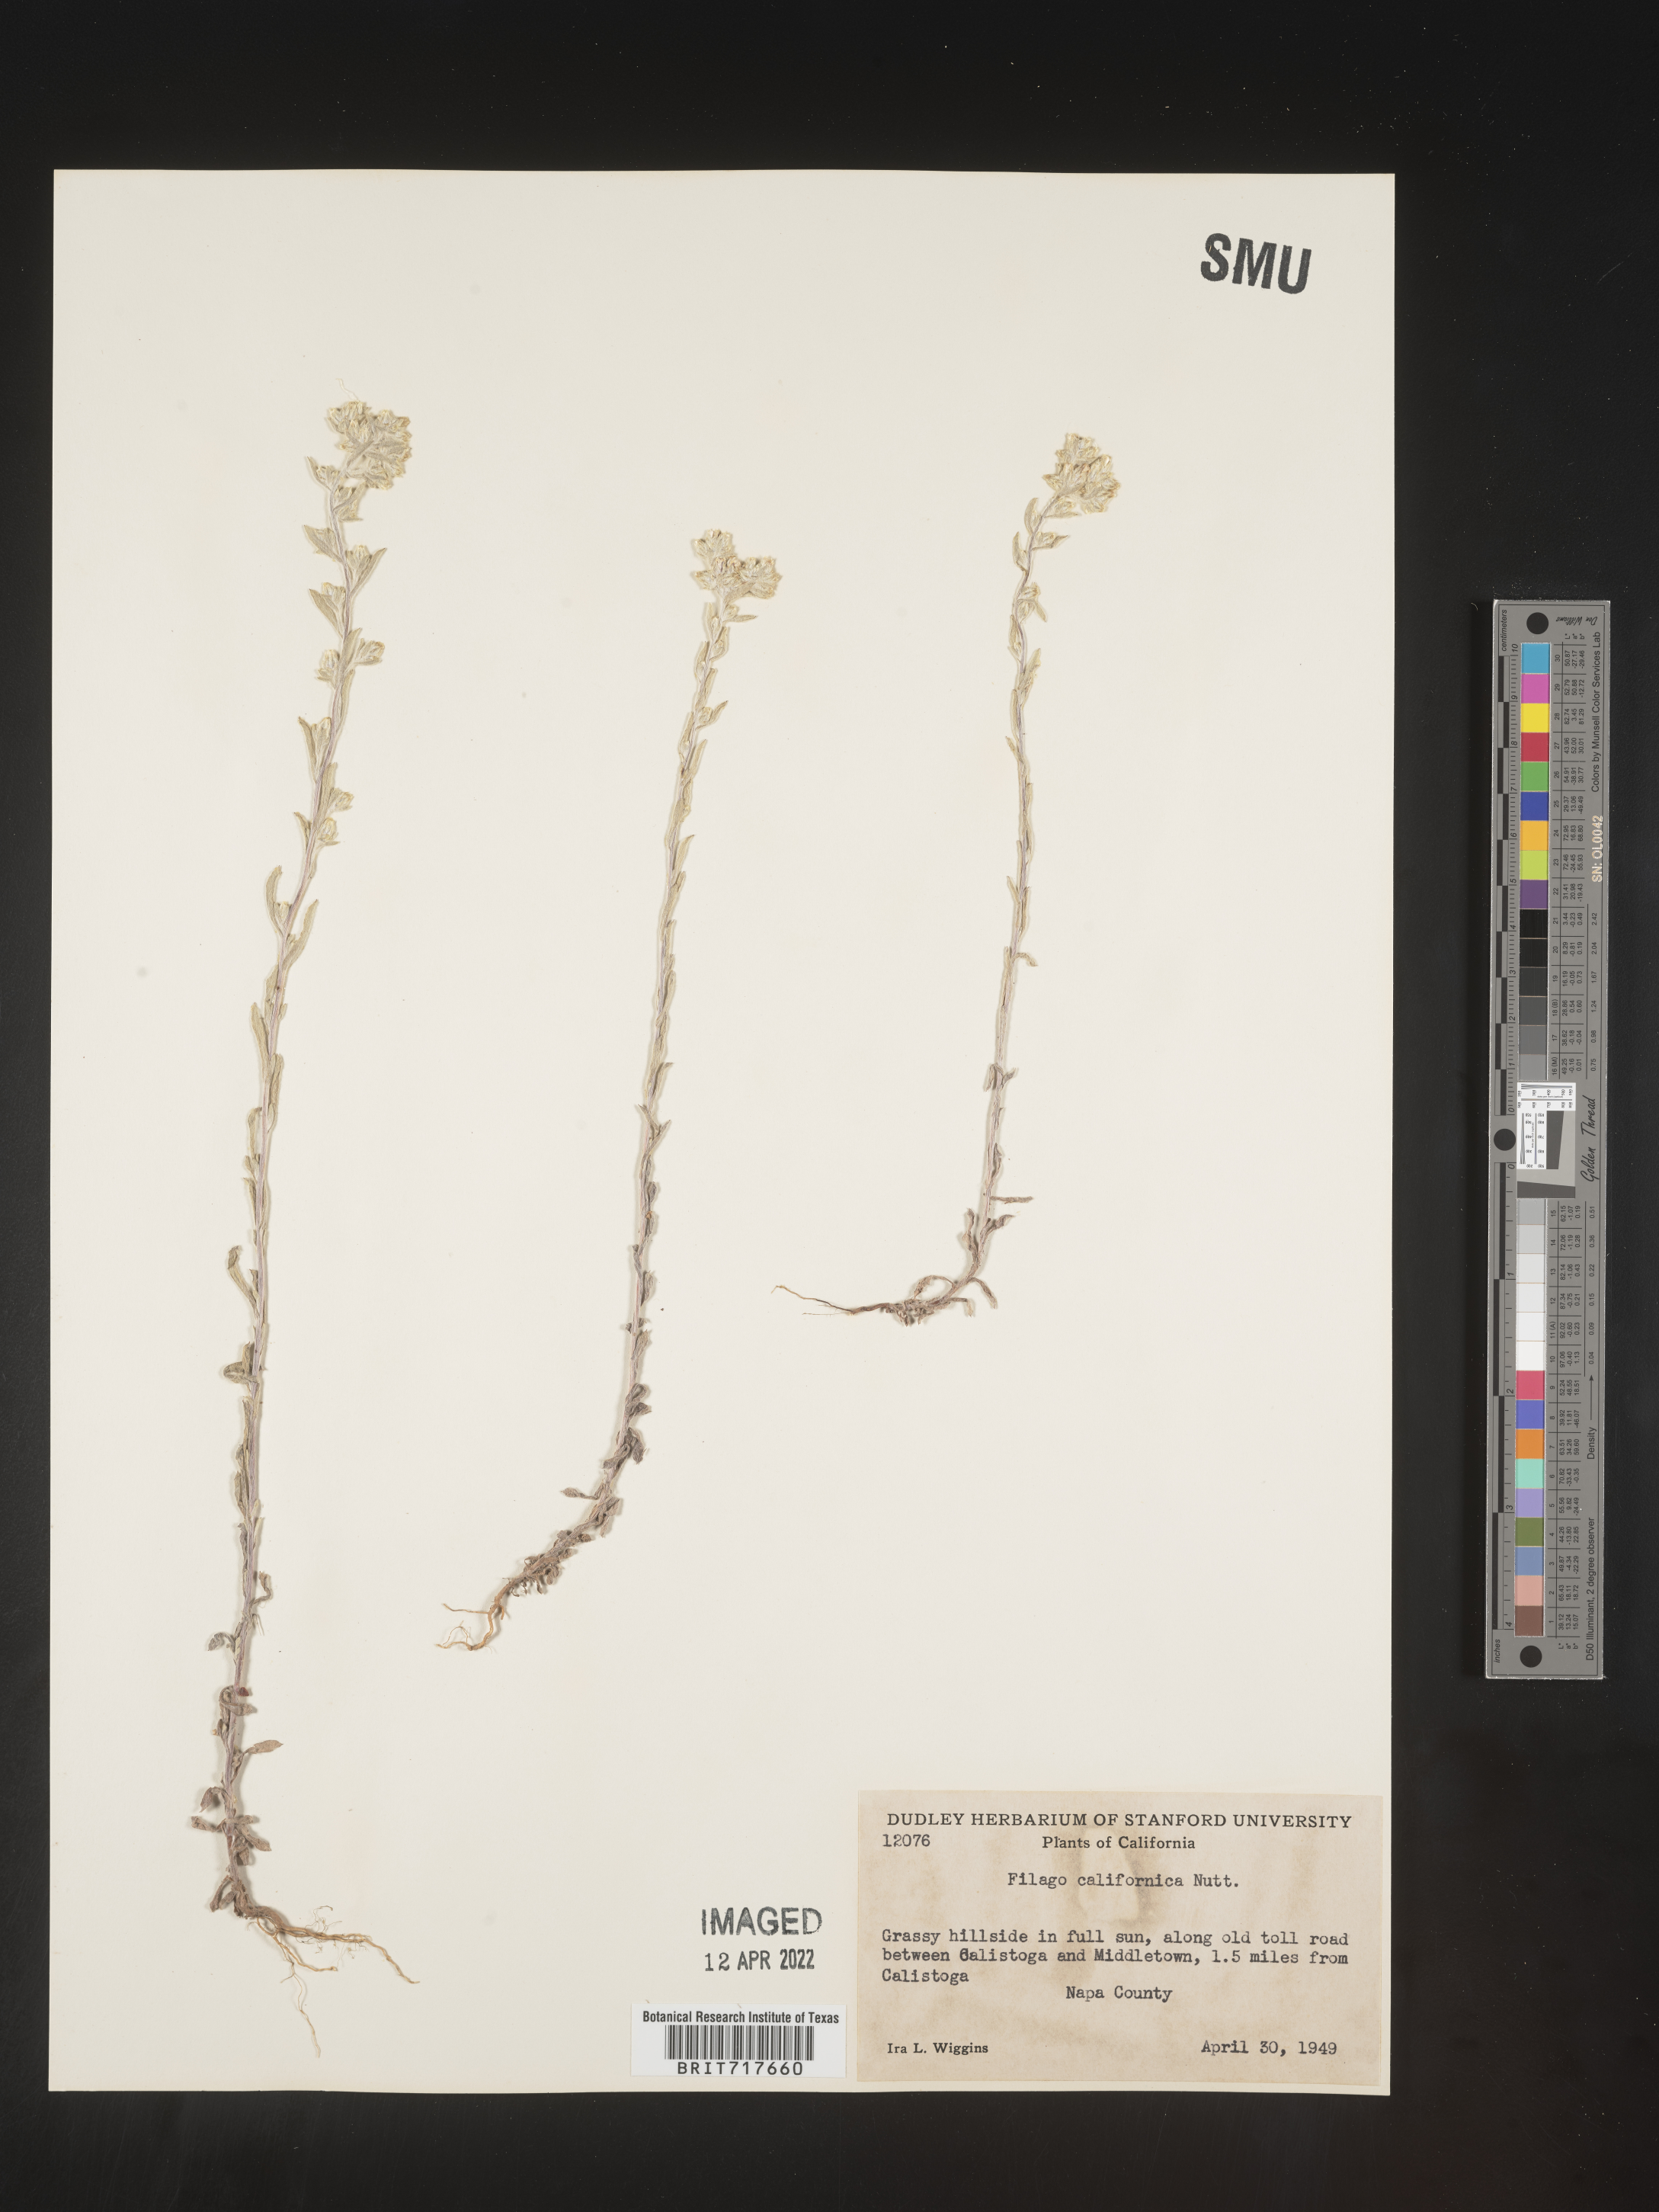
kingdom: Plantae
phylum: Tracheophyta
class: Magnoliopsida
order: Asterales
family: Asteraceae
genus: Logfia
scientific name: Logfia californica
